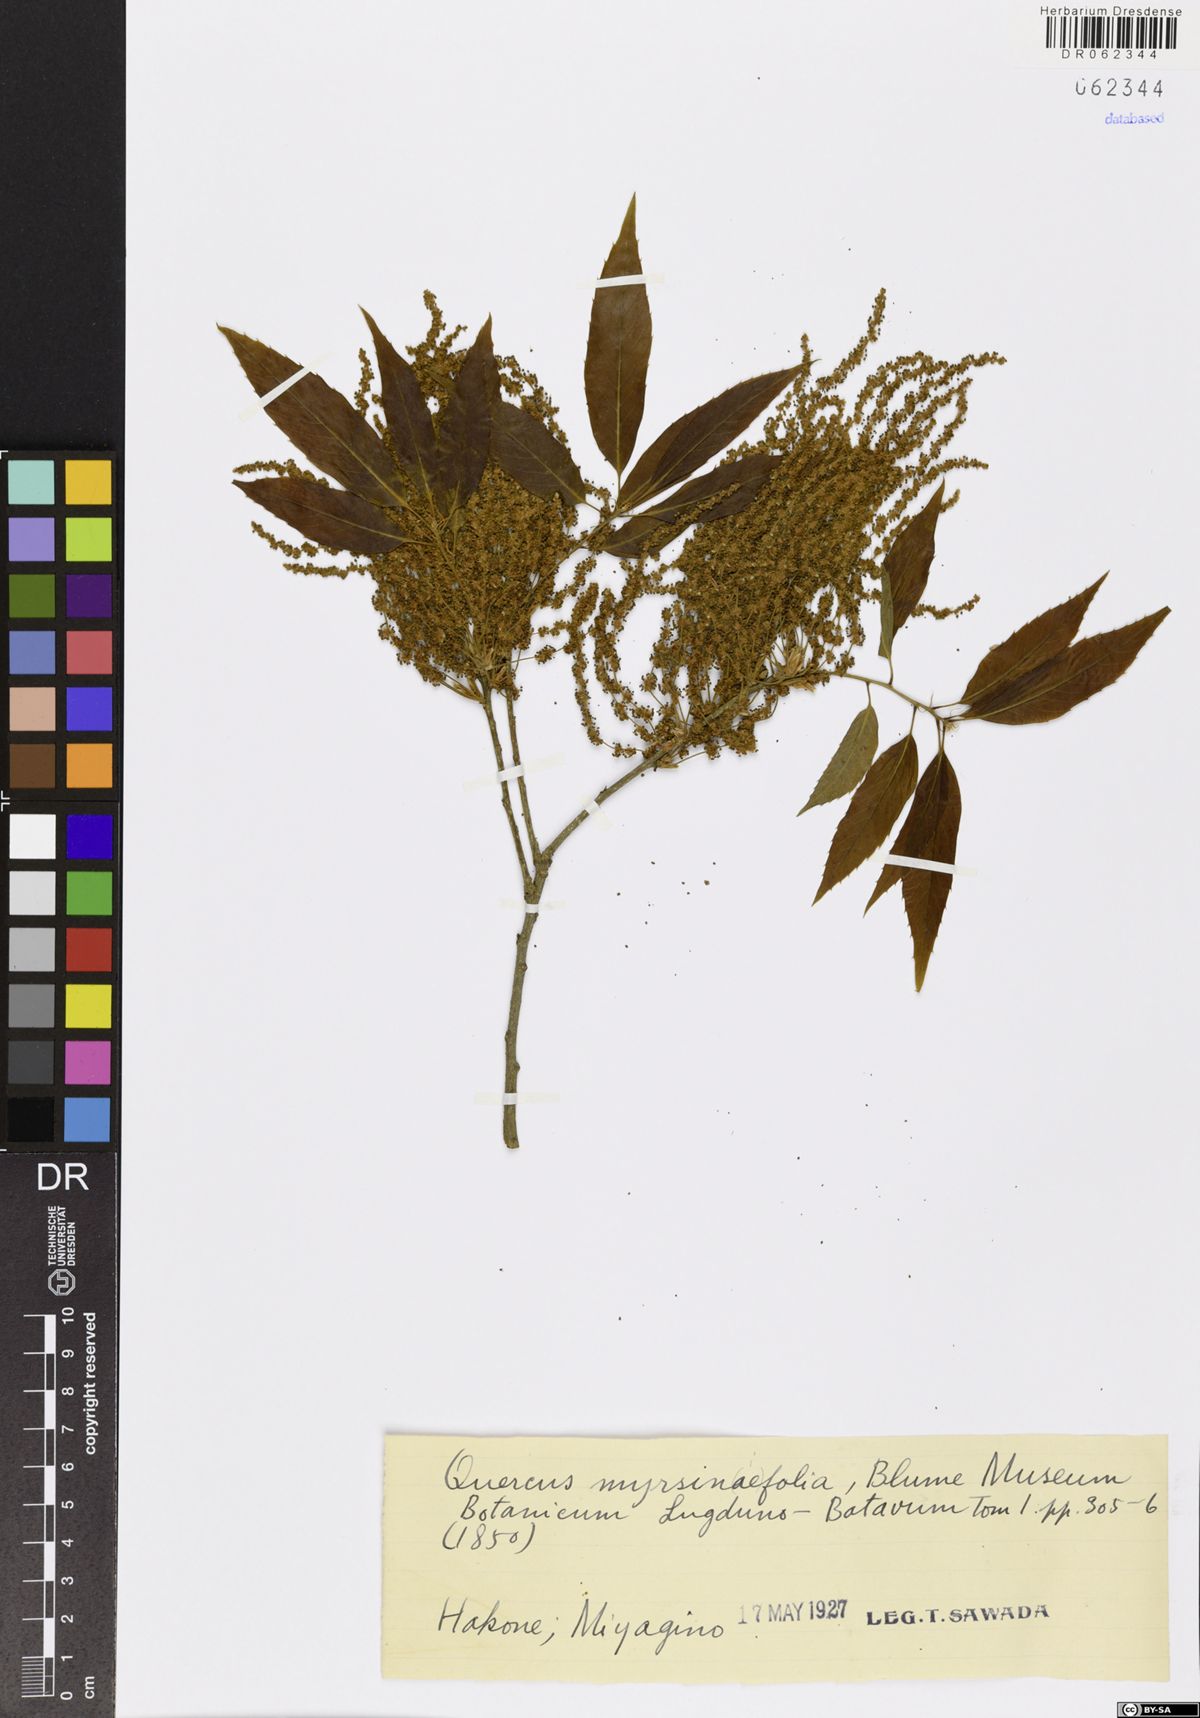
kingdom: Plantae
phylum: Tracheophyta
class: Magnoliopsida
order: Fagales
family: Fagaceae
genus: Quercus
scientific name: Quercus myrsinifolia
